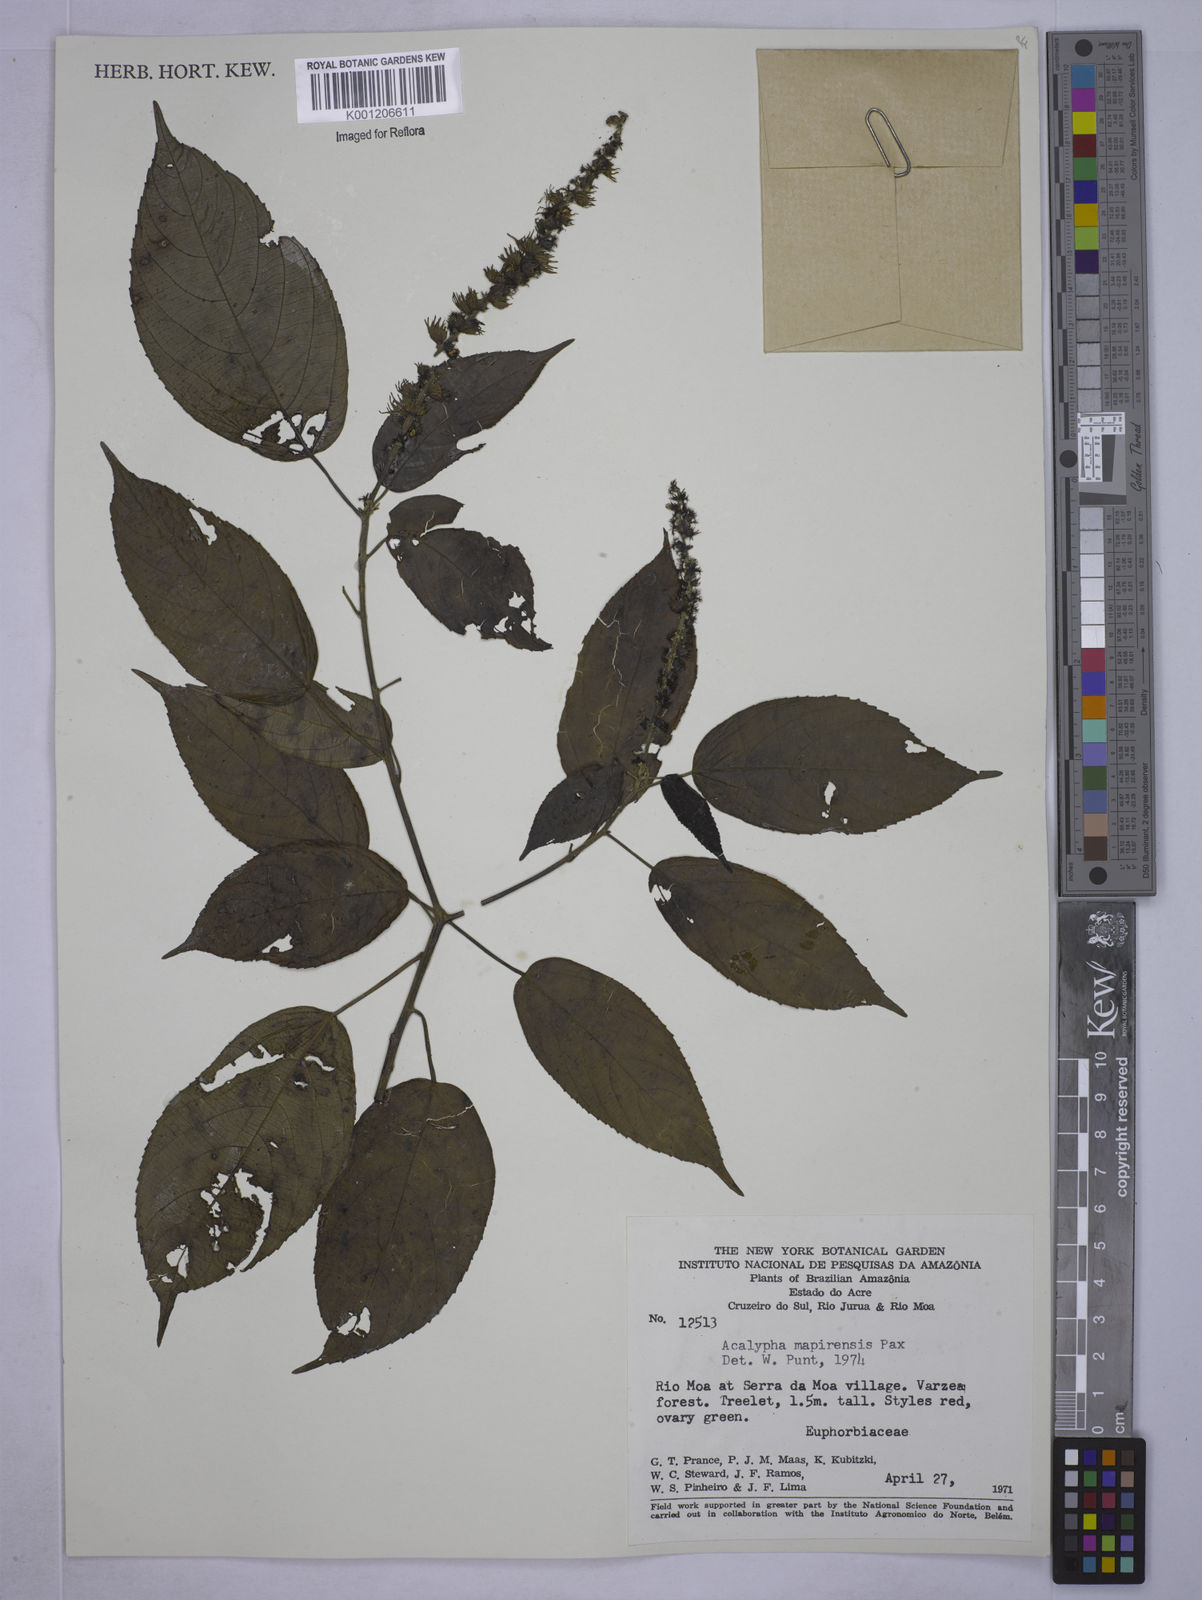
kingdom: Plantae
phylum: Tracheophyta
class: Magnoliopsida
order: Malpighiales
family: Euphorbiaceae
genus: Acalypha
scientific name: Acalypha stricta
